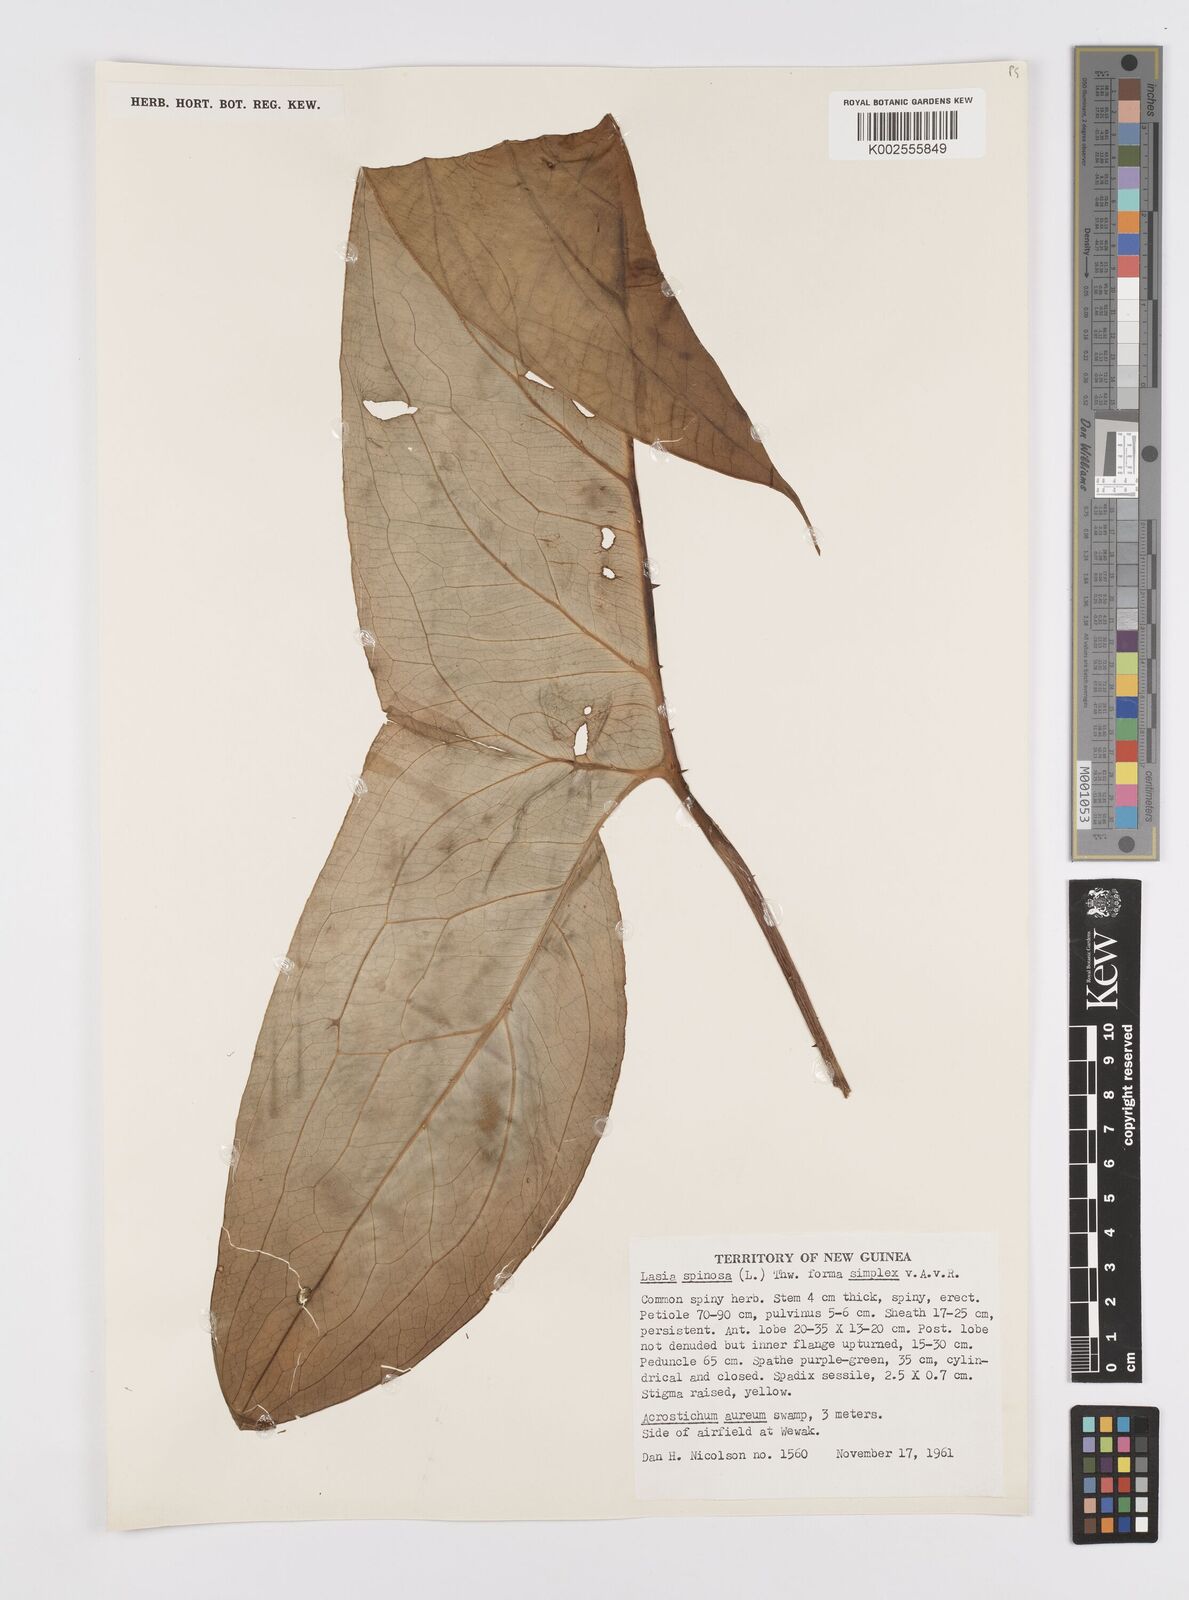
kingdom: Plantae
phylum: Tracheophyta
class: Liliopsida
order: Alismatales
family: Araceae
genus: Lasia
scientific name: Lasia spinosa
